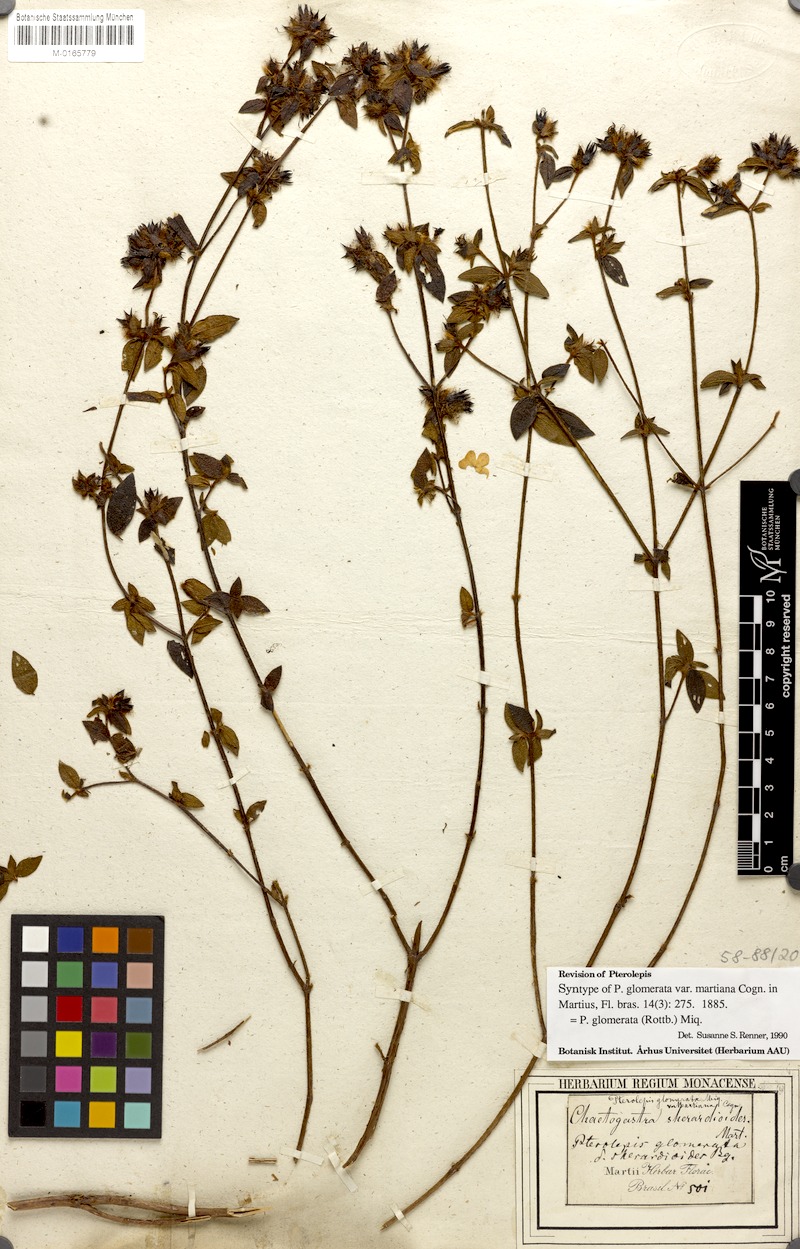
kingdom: Plantae
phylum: Tracheophyta
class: Magnoliopsida
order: Myrtales
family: Melastomataceae
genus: Pterolepis
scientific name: Pterolepis glomerata
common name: False meadowbeauty
